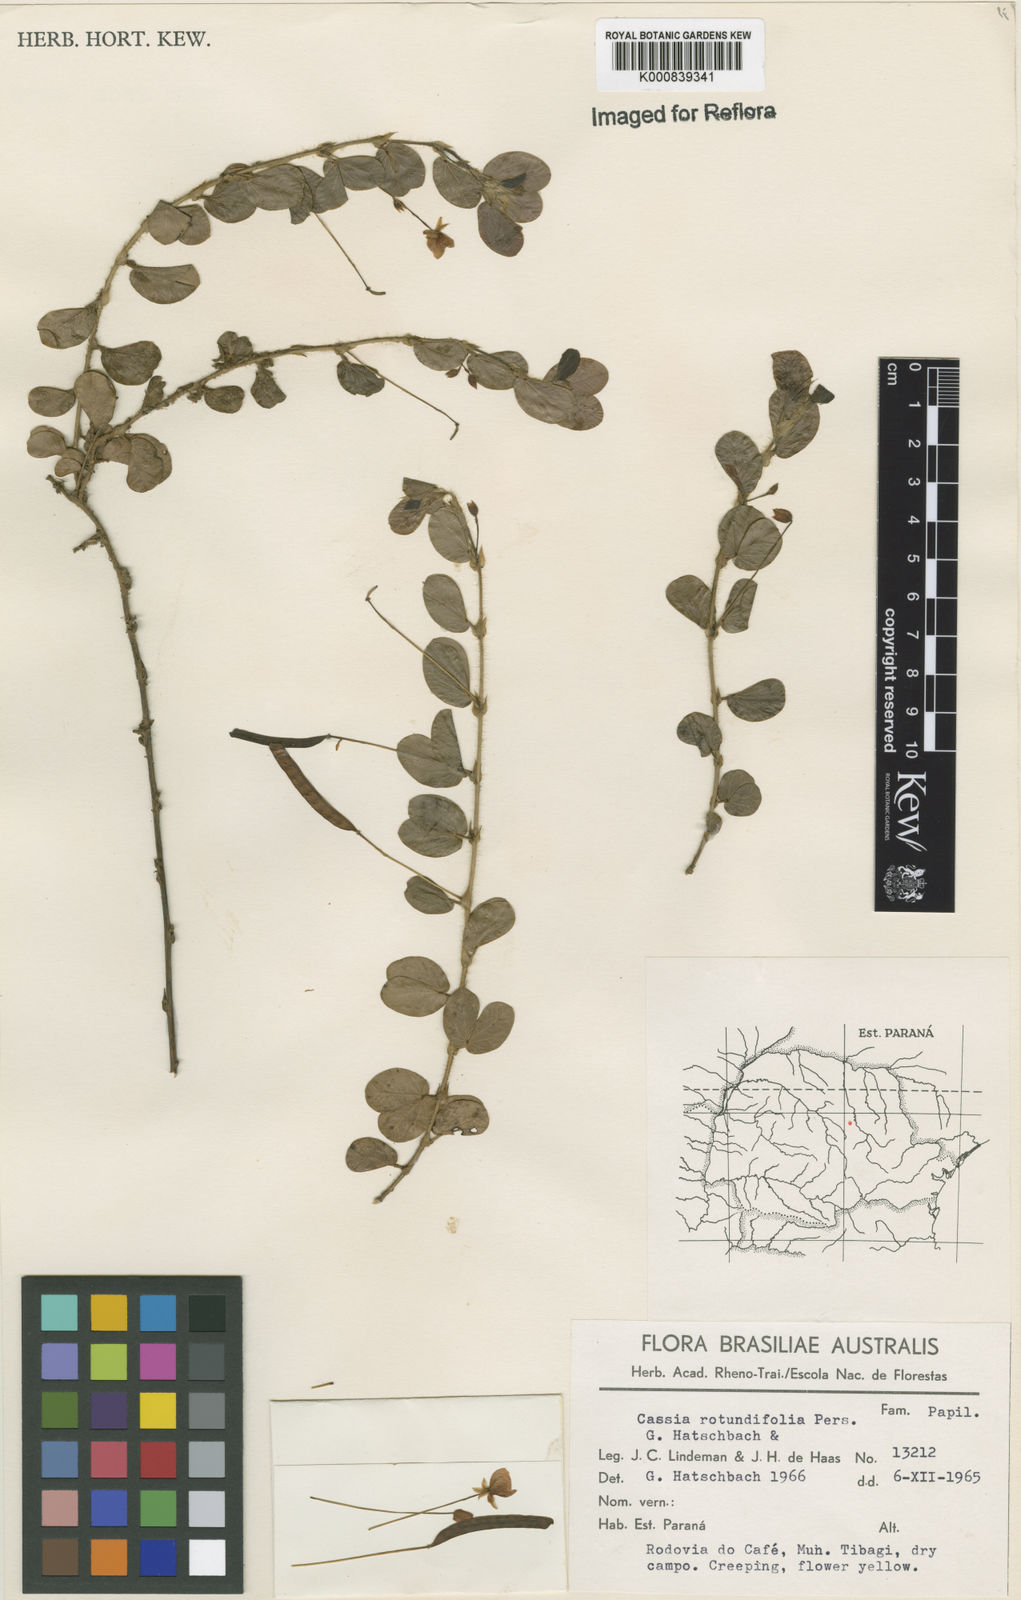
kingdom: Plantae
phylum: Tracheophyta
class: Magnoliopsida
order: Fabales
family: Fabaceae
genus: Chamaecrista
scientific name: Chamaecrista rotundifolia
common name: Round-leaf cassia
